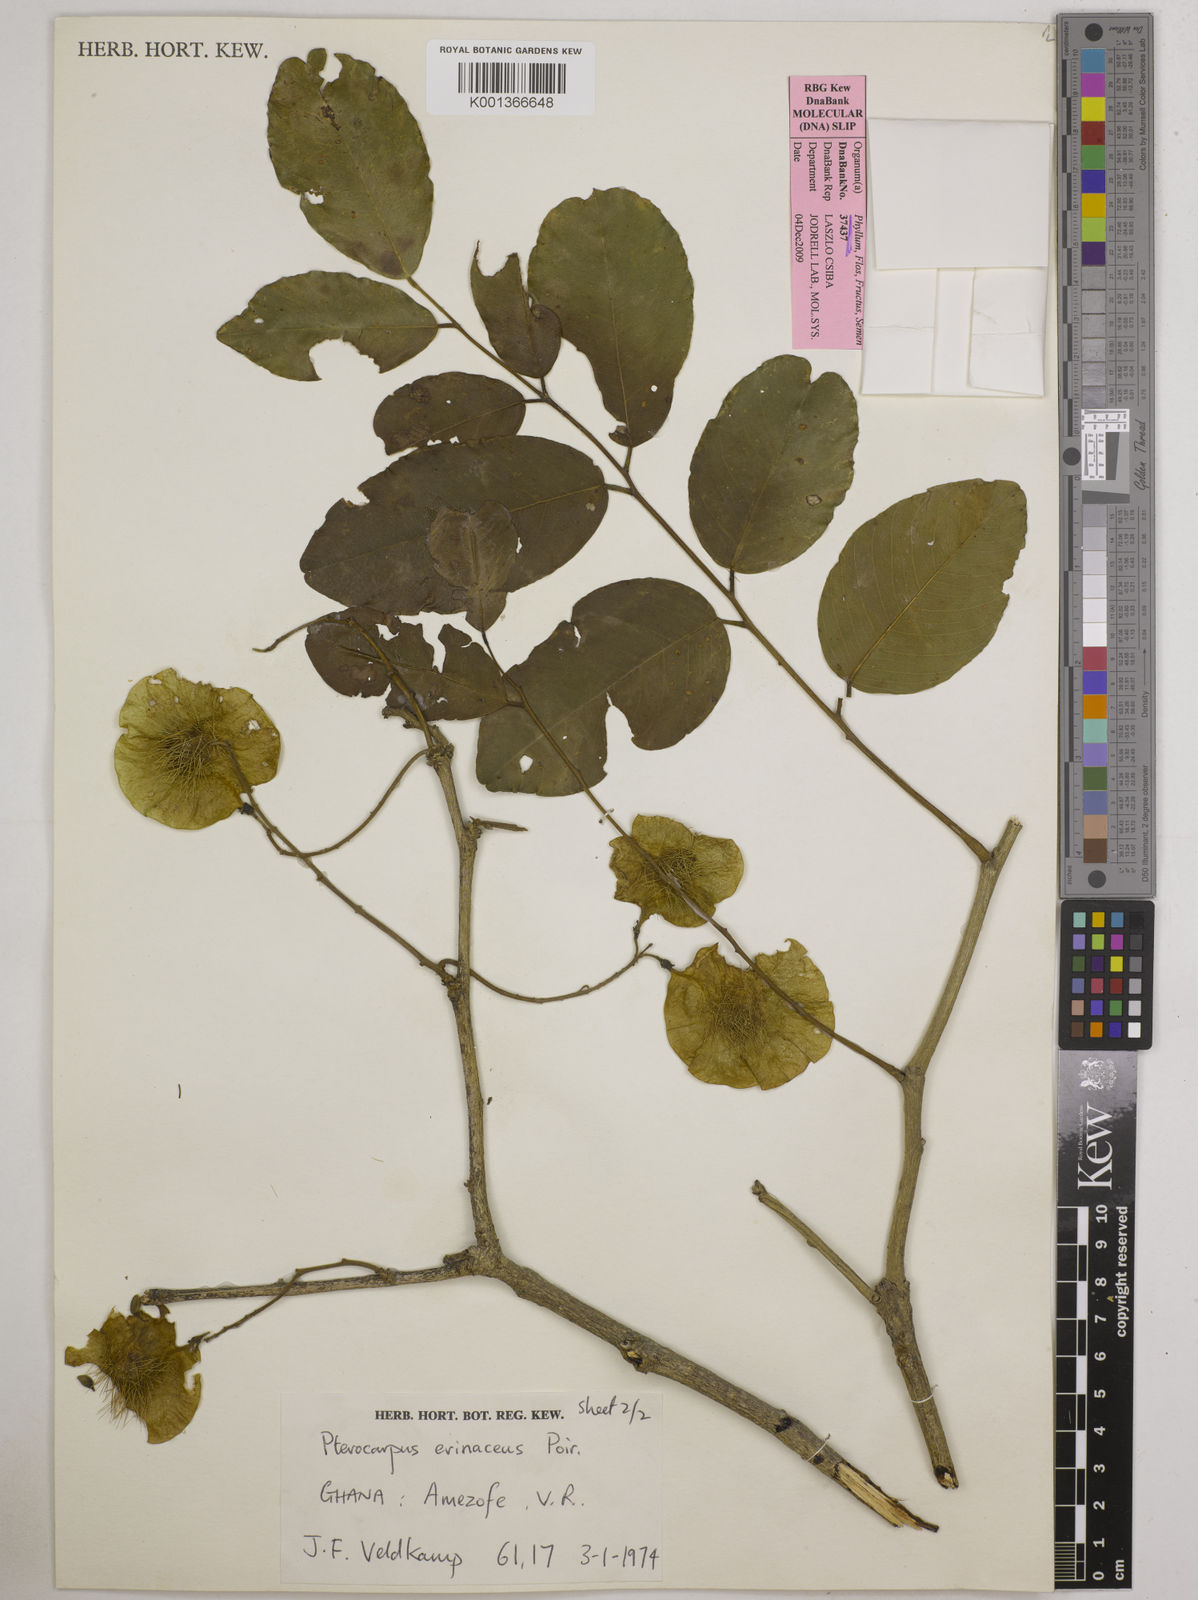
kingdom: Plantae
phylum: Tracheophyta
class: Magnoliopsida
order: Fabales
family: Fabaceae
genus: Pterocarpus
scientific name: Pterocarpus erinaceus
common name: African rosewood
